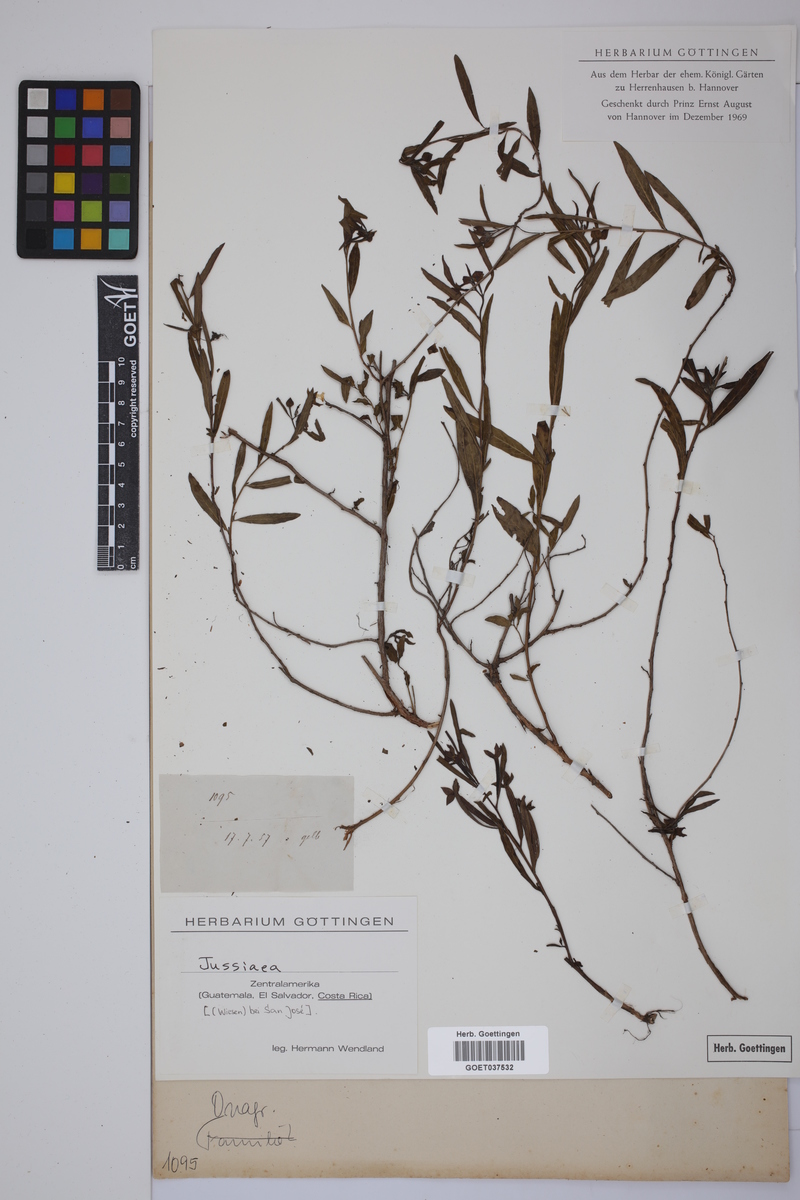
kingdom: Plantae
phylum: Tracheophyta
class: Magnoliopsida
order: Myrtales
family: Onagraceae
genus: Ludwigia
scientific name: Ludwigia
